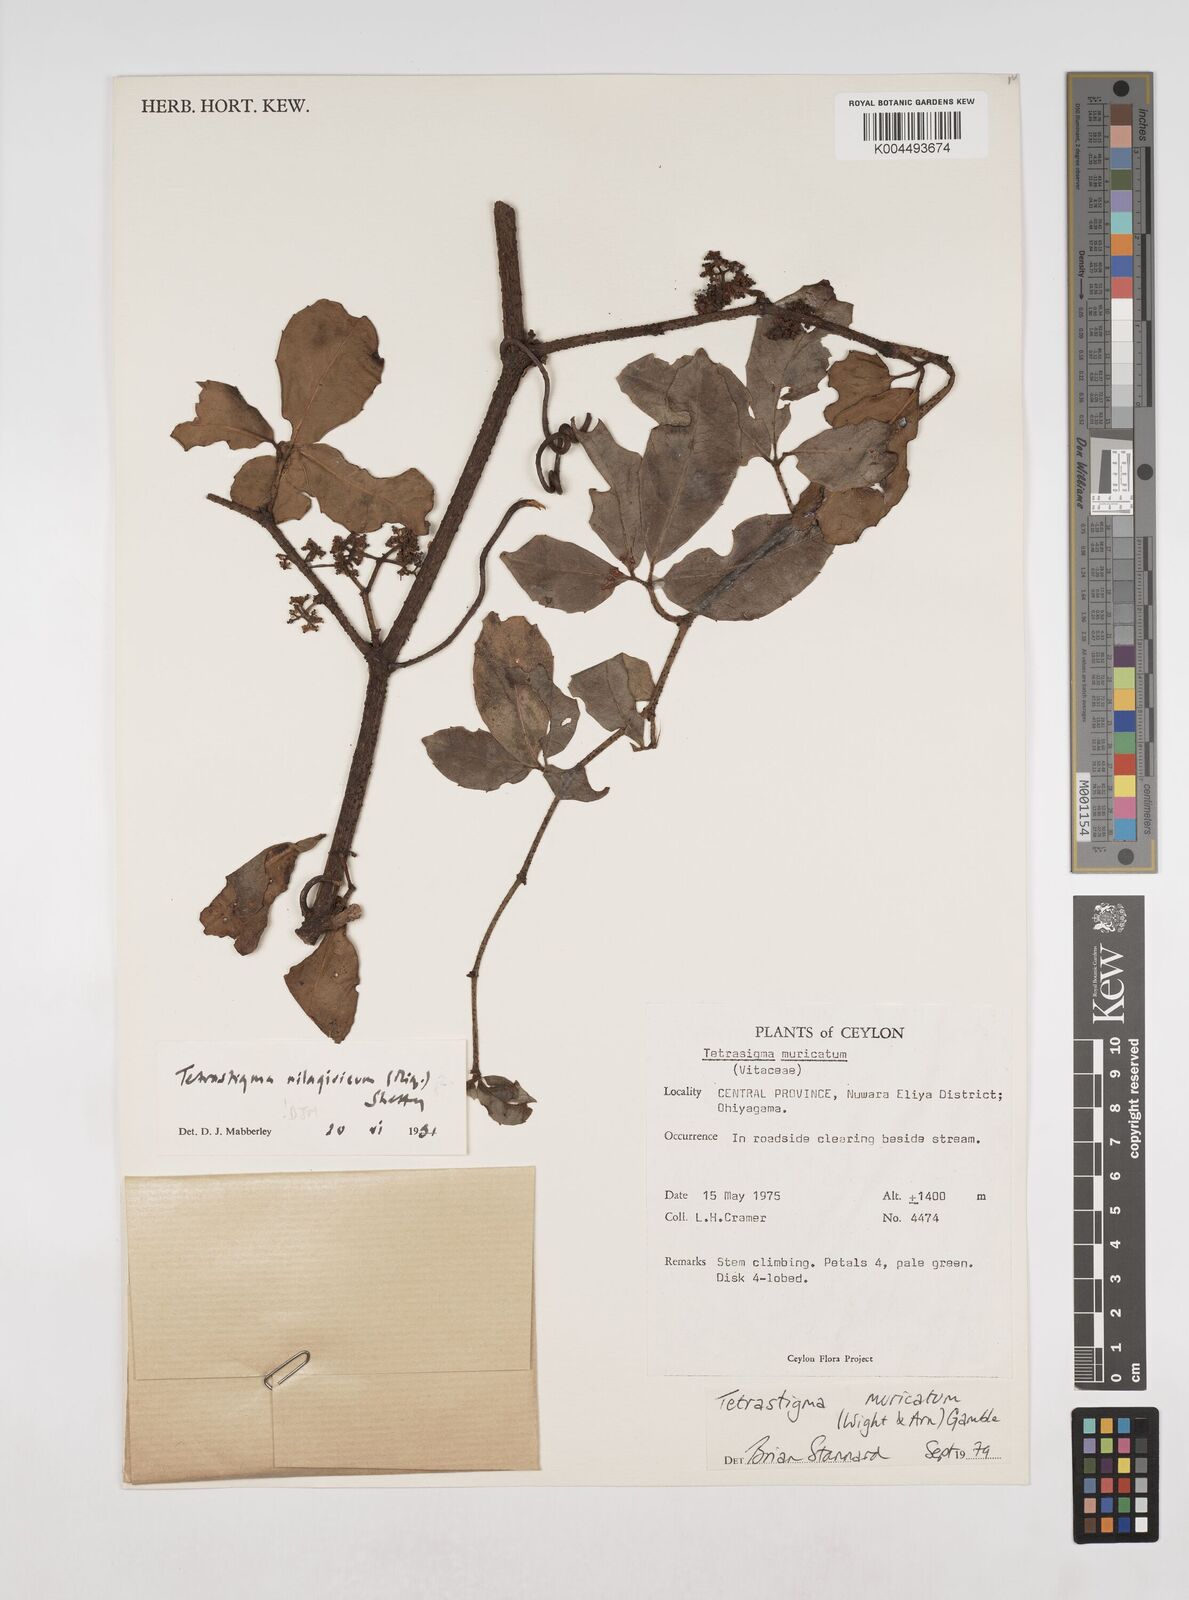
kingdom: Plantae
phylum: Tracheophyta
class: Magnoliopsida
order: Vitales
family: Vitaceae
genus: Tetrastigma
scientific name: Tetrastigma leucostaphylum
